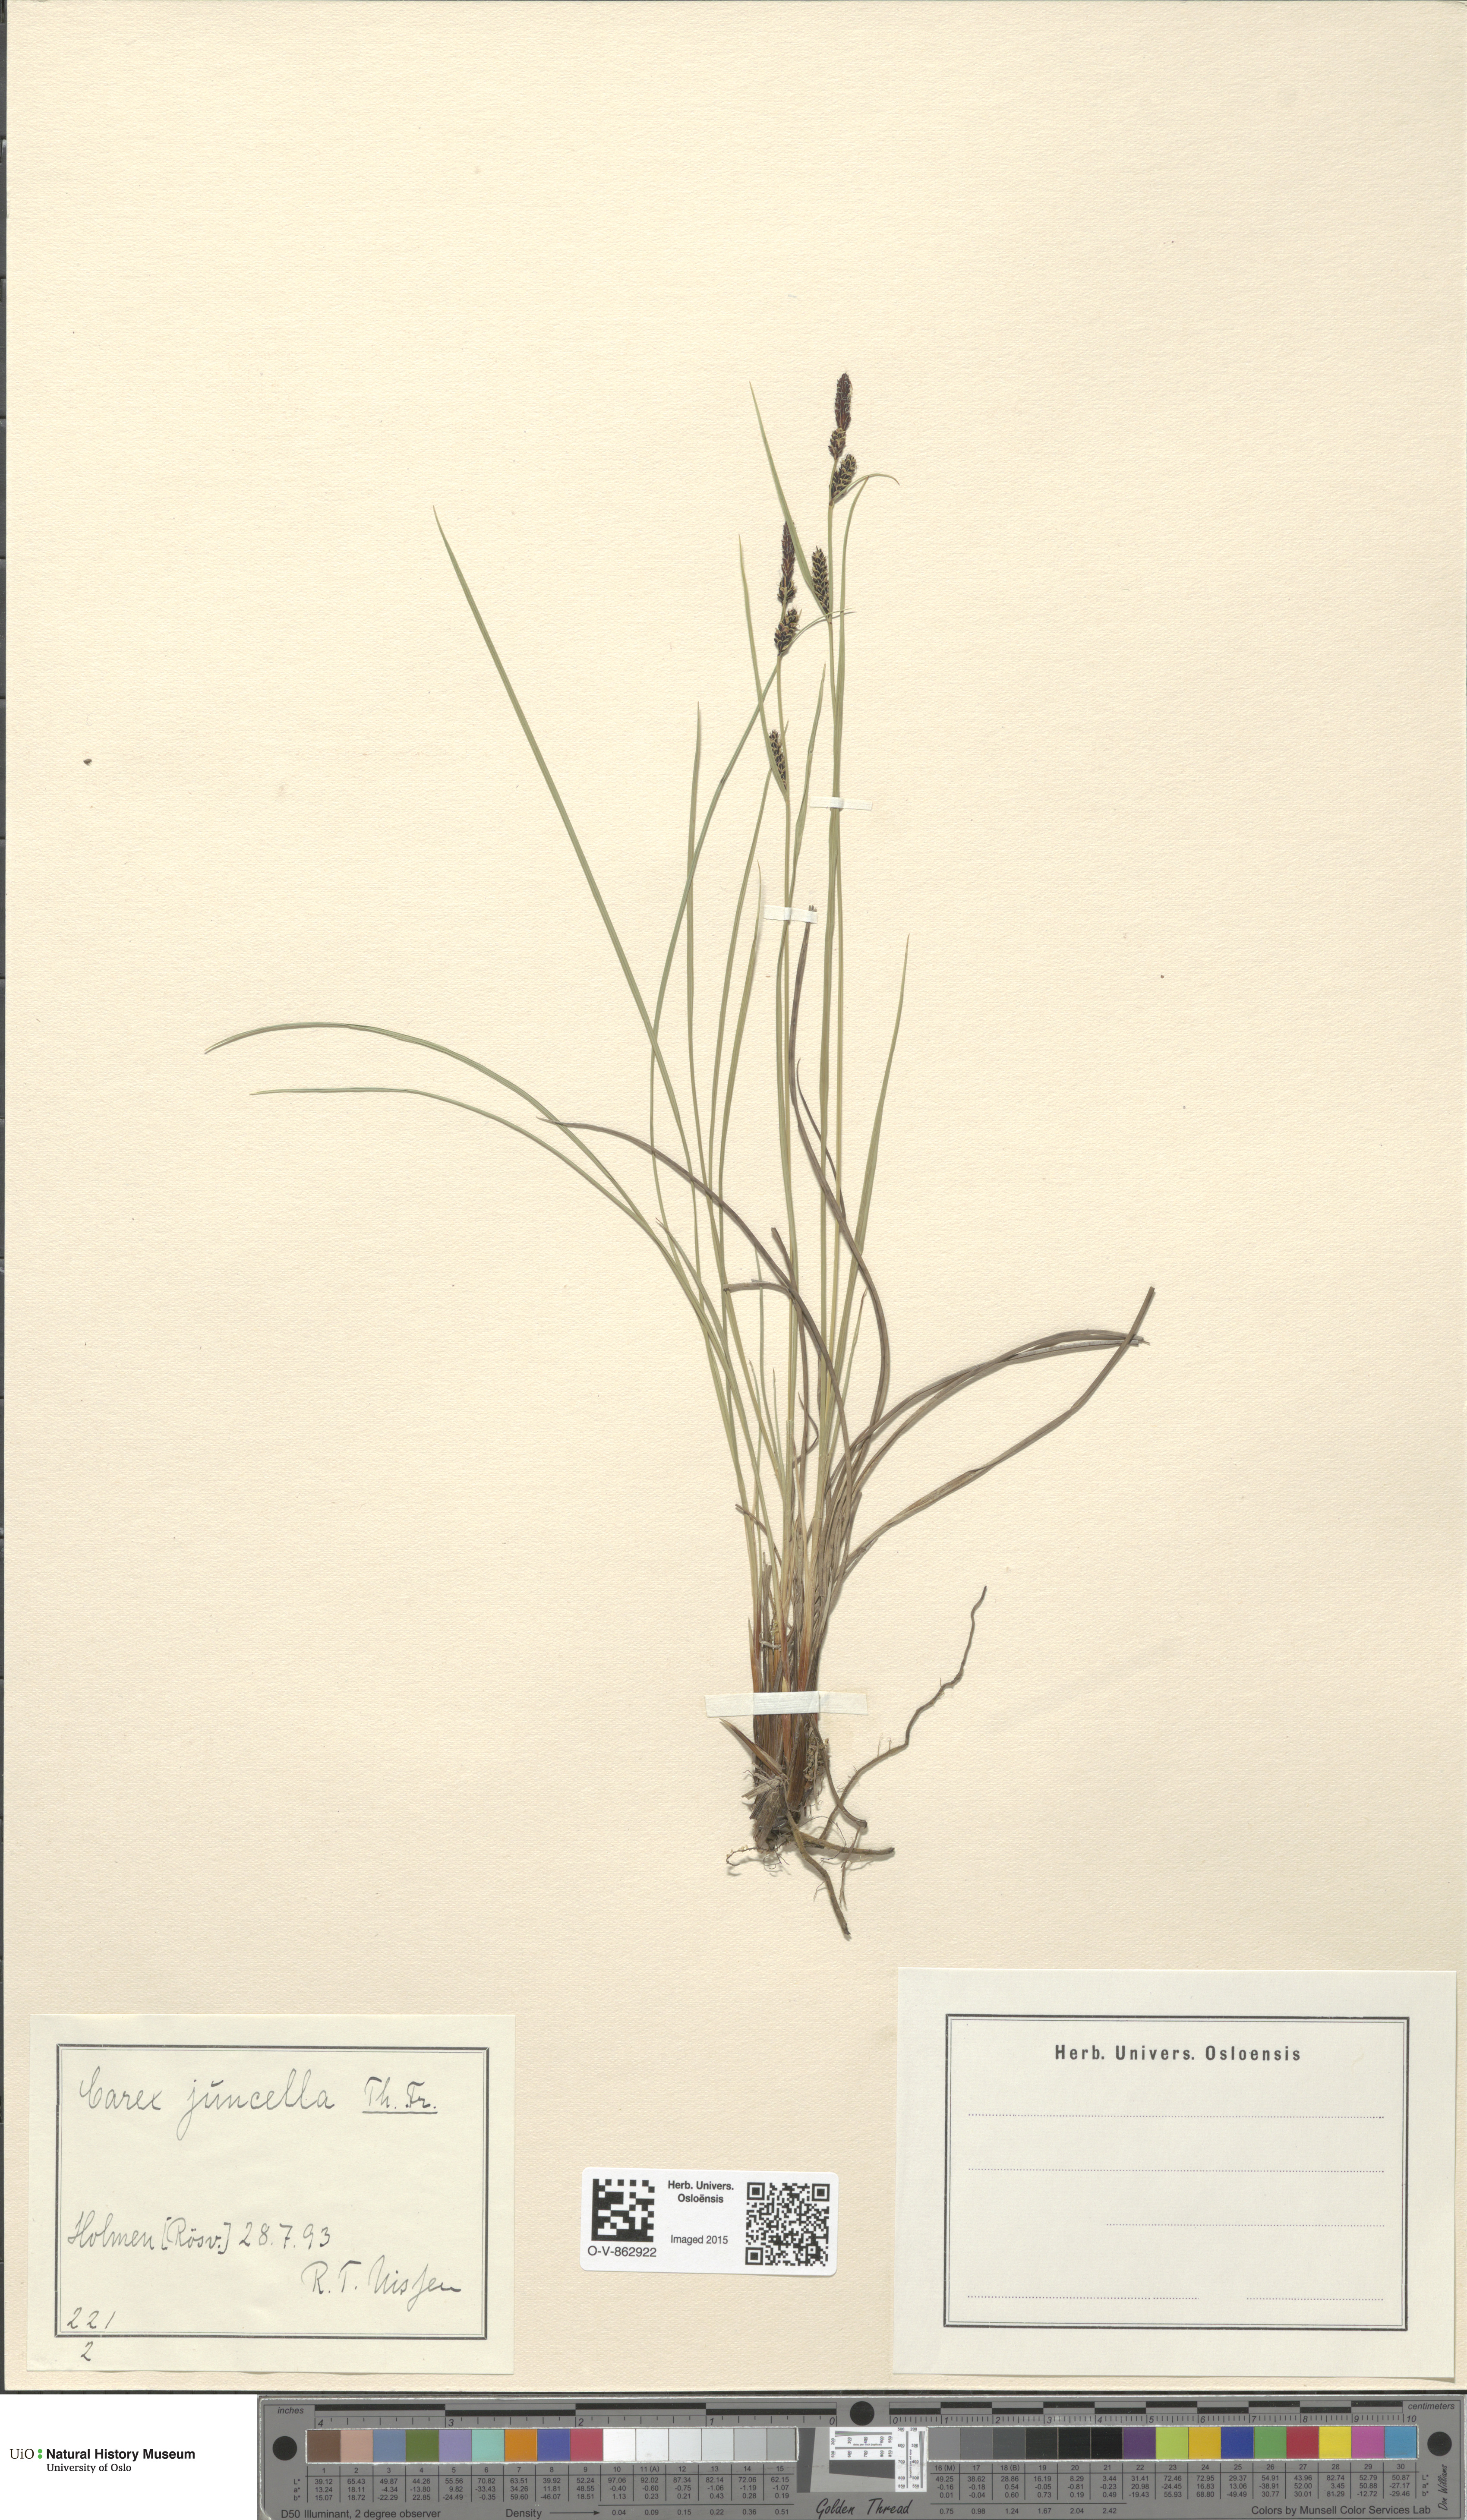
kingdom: Plantae
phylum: Tracheophyta
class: Liliopsida
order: Poales
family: Cyperaceae
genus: Carex
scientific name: Carex nigra
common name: Common sedge
